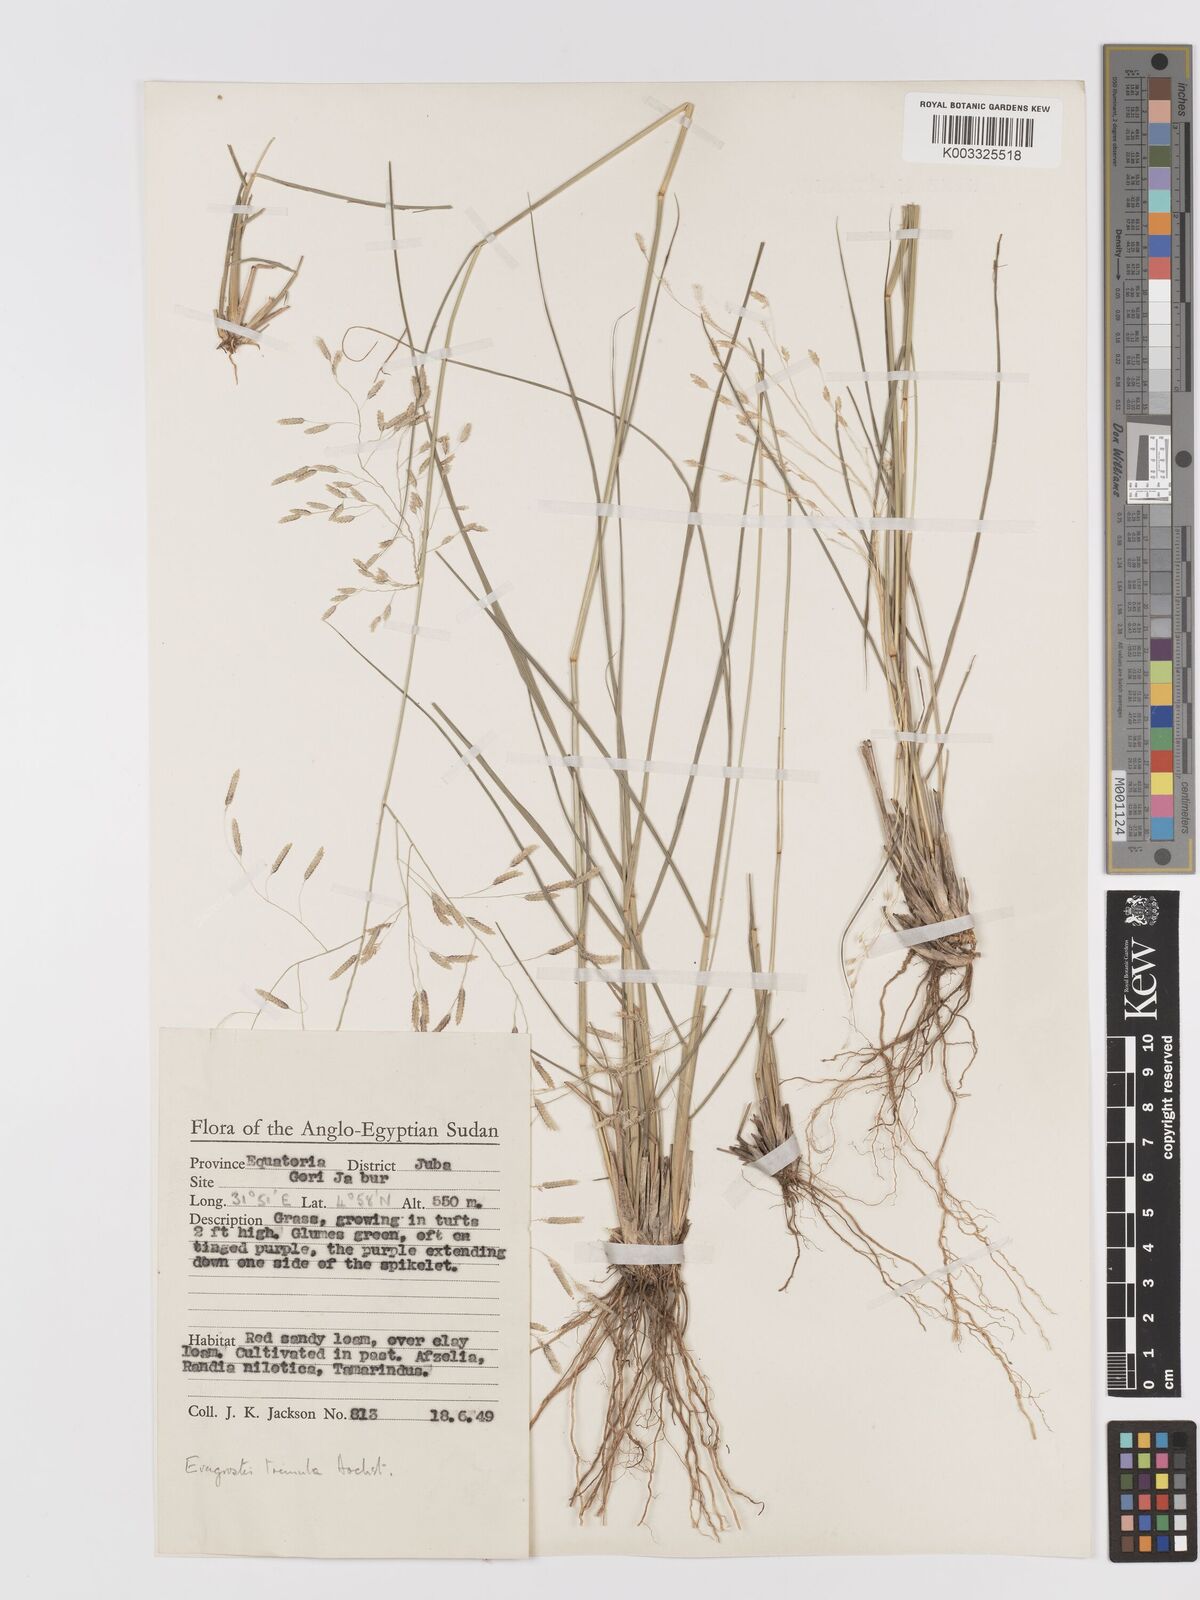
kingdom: Plantae
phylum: Tracheophyta
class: Liliopsida
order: Poales
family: Poaceae
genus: Eragrostis
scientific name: Eragrostis tremula
